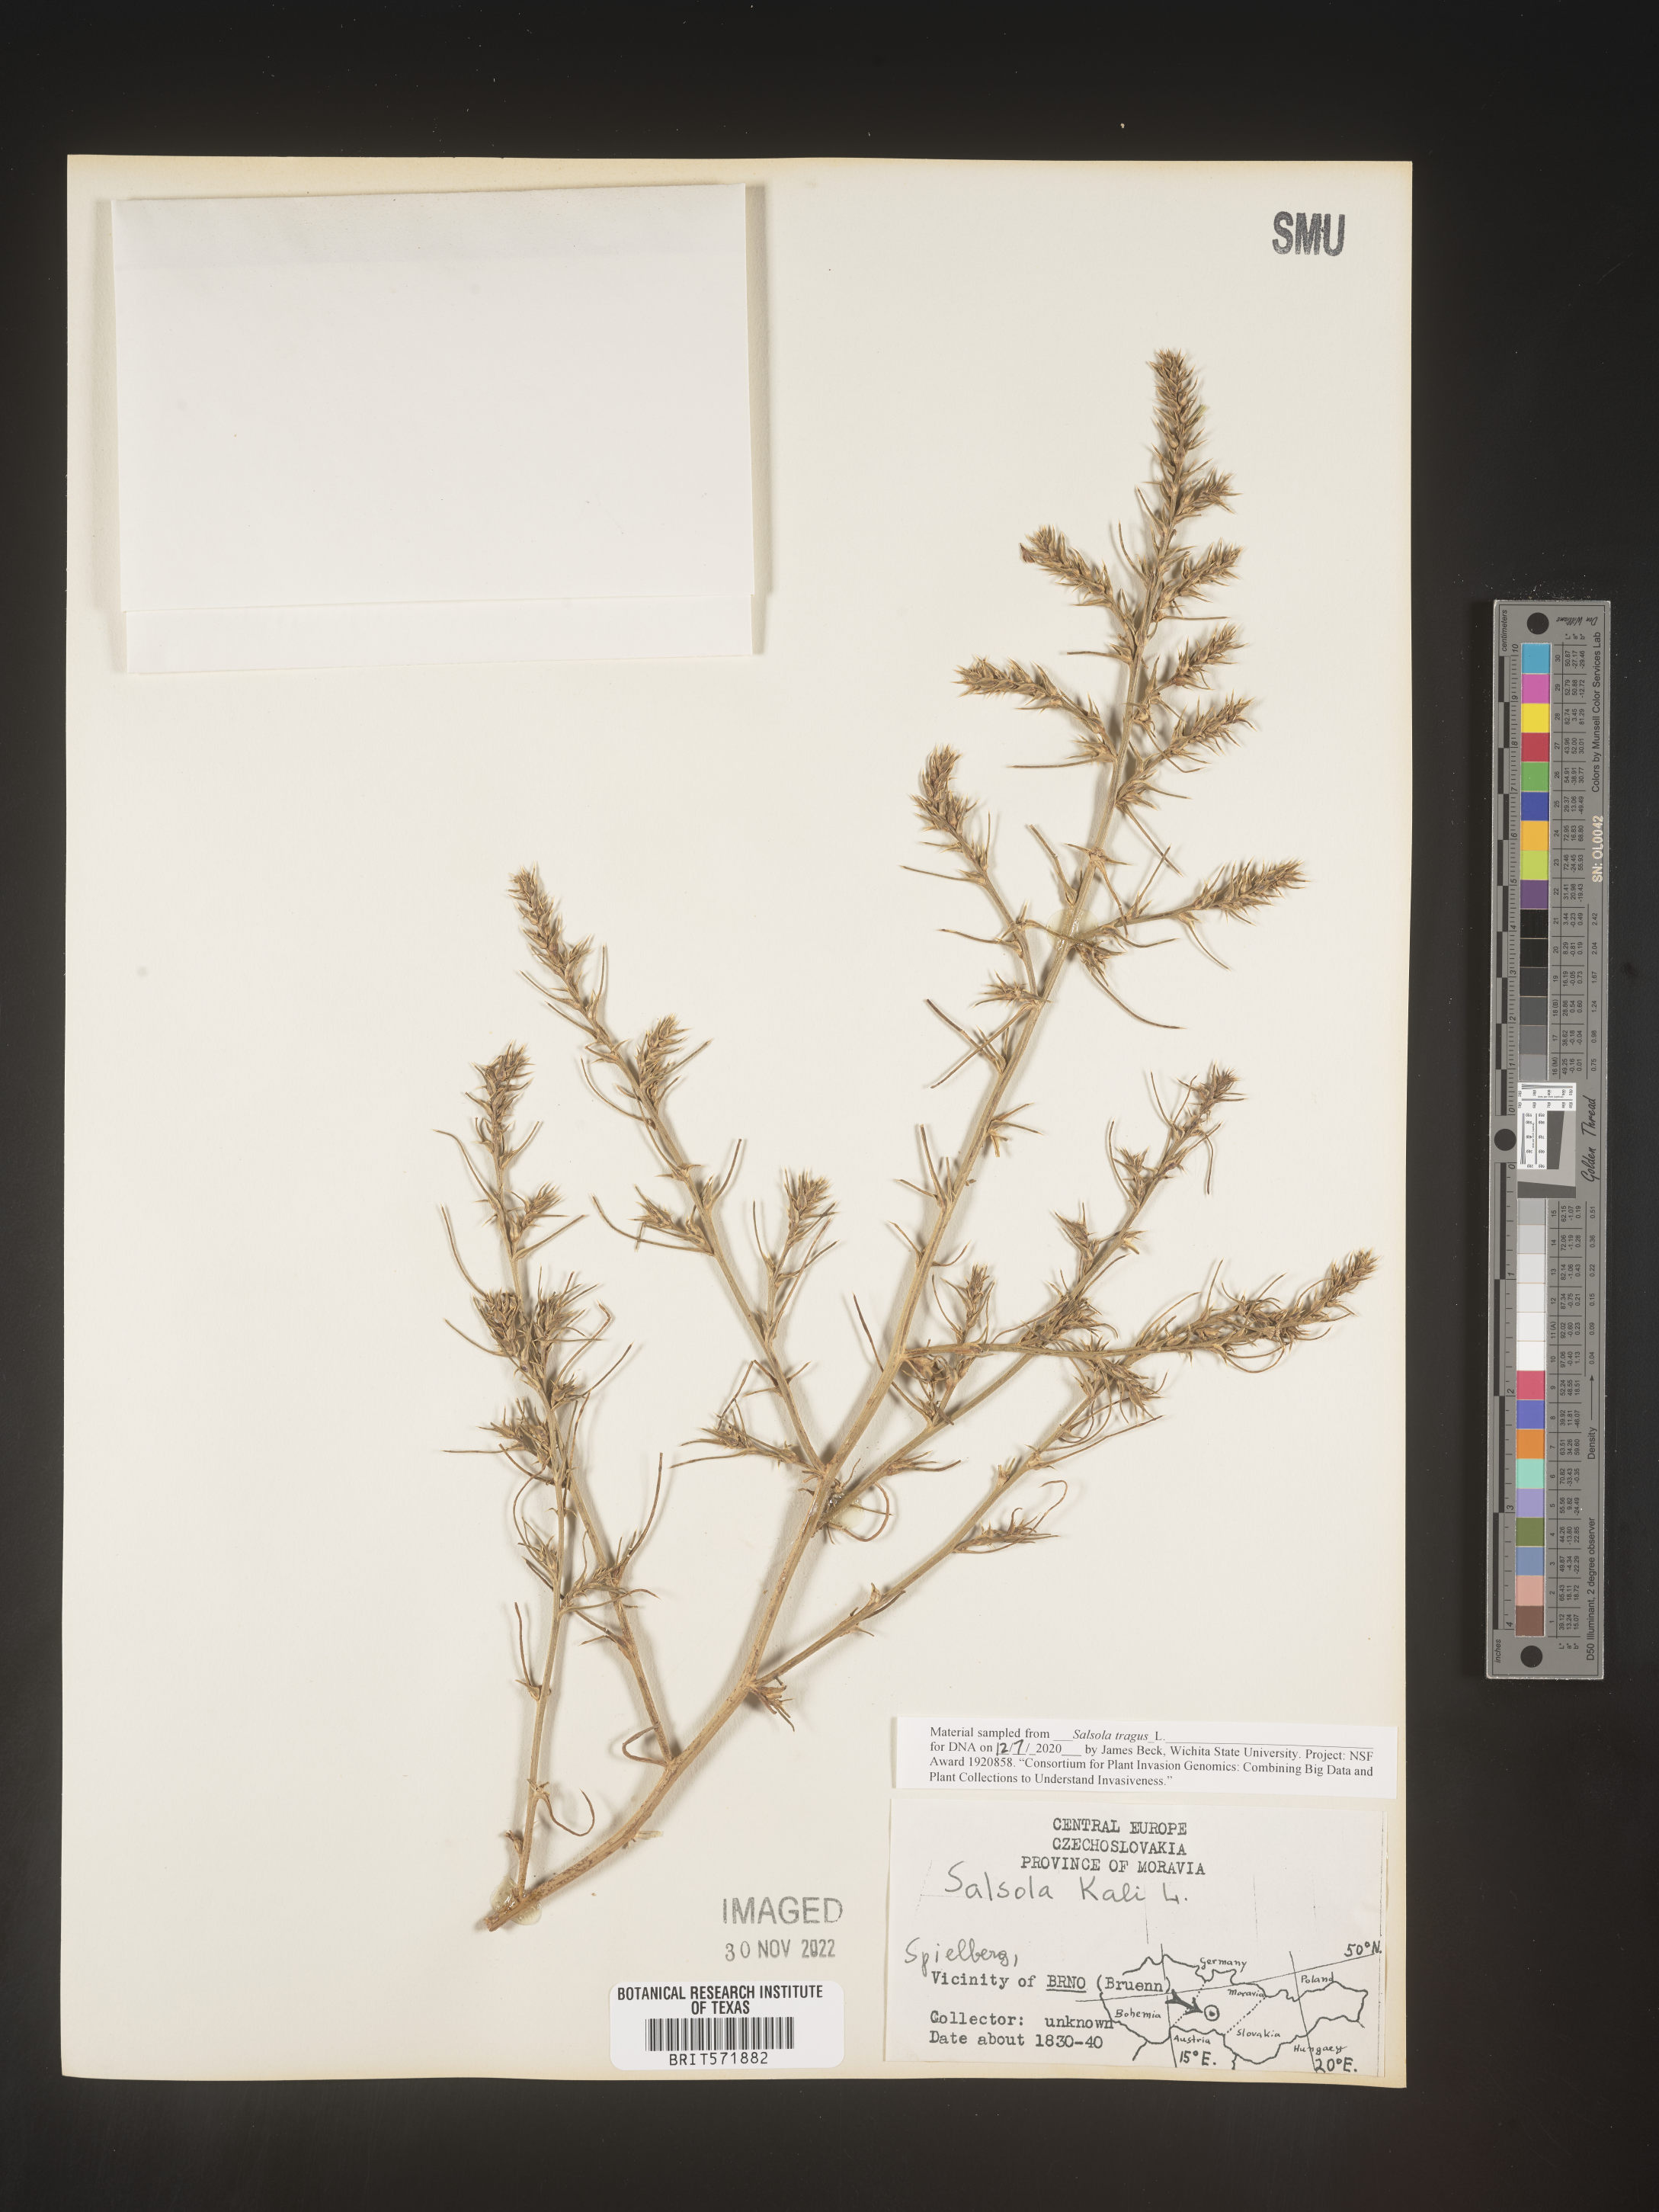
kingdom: Plantae
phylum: Tracheophyta
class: Magnoliopsida
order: Caryophyllales
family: Amaranthaceae
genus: Salsola
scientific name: Salsola tragus
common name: Prickly russian thistle
